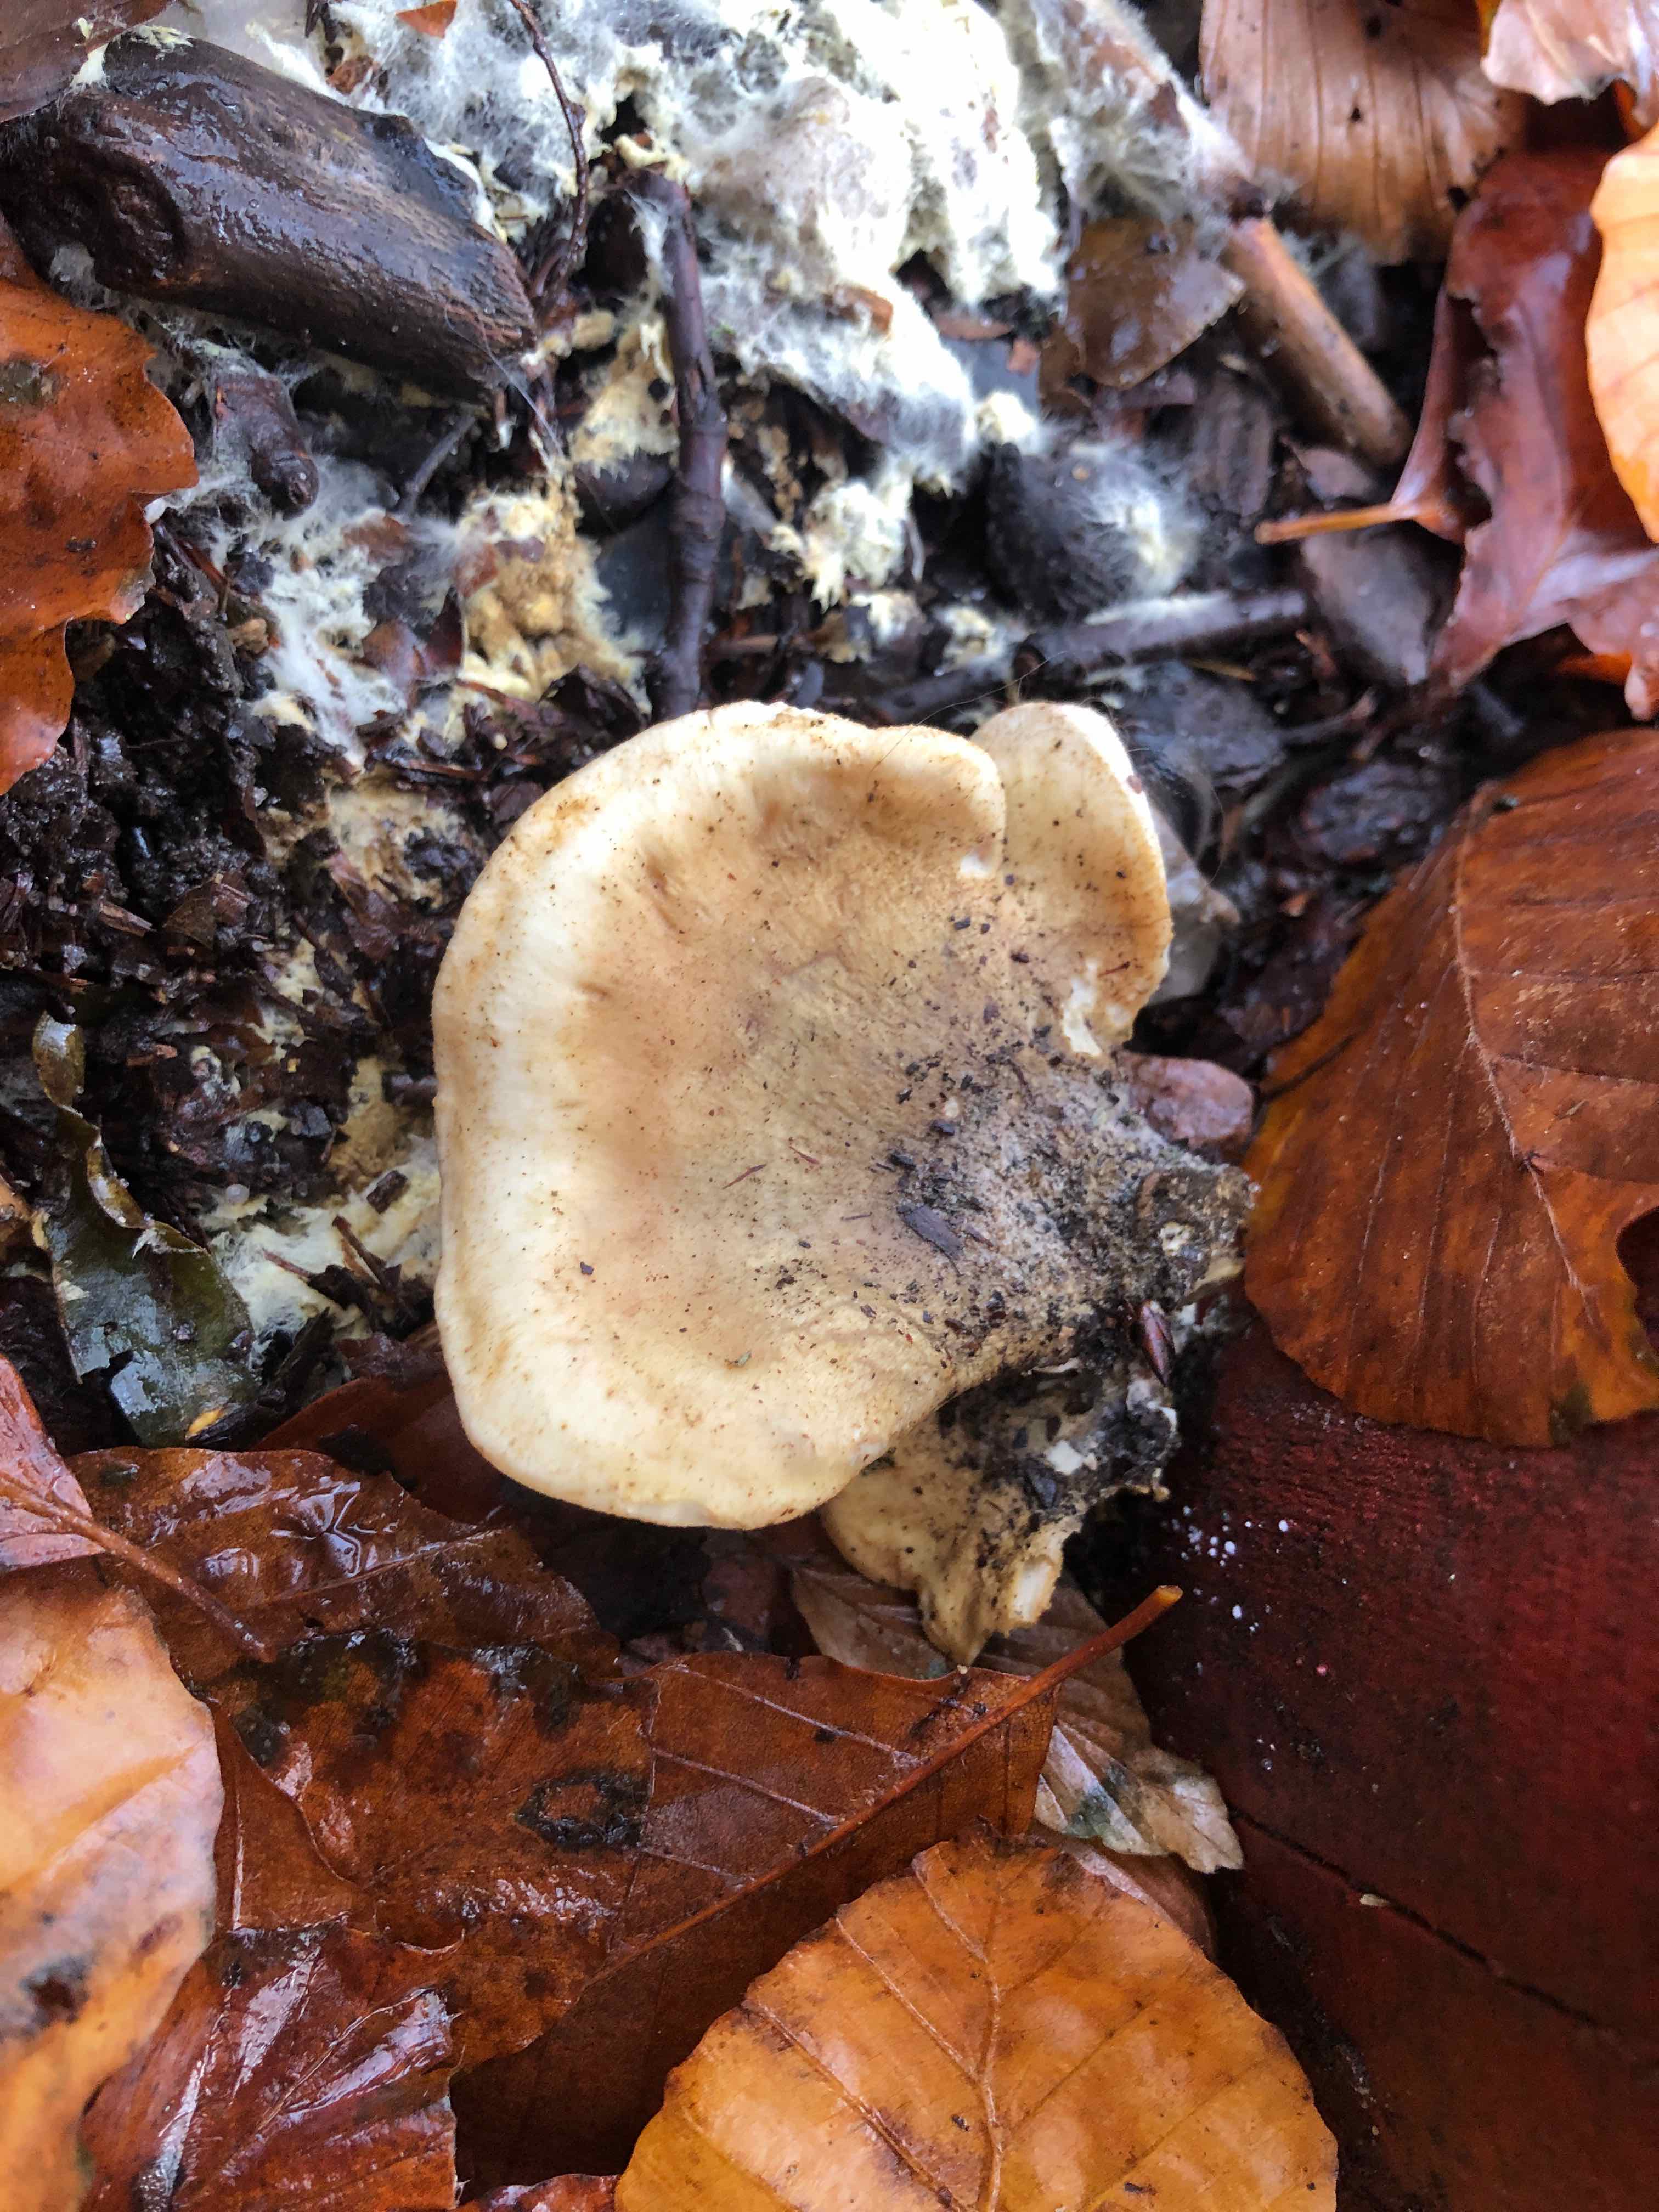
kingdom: Fungi
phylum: Basidiomycota
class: Agaricomycetes
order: Boletales
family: Tapinellaceae
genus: Tapinella
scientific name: Tapinella panuoides
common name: tømmer-viftesvamp
